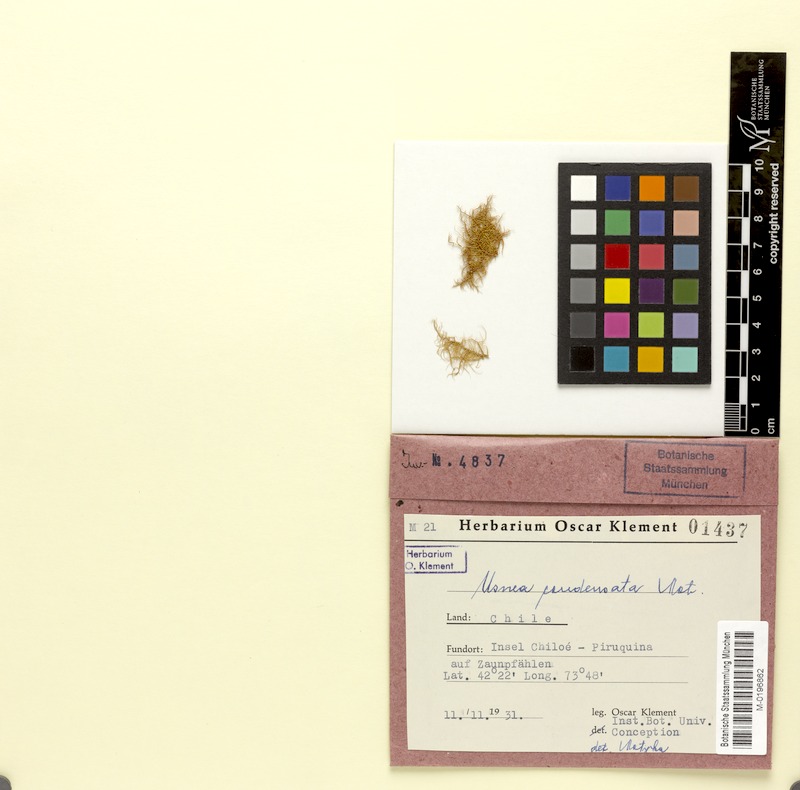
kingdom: Fungi
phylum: Ascomycota
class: Lecanoromycetes
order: Lecanorales
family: Parmeliaceae
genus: Usnea
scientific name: Usnea condensata
